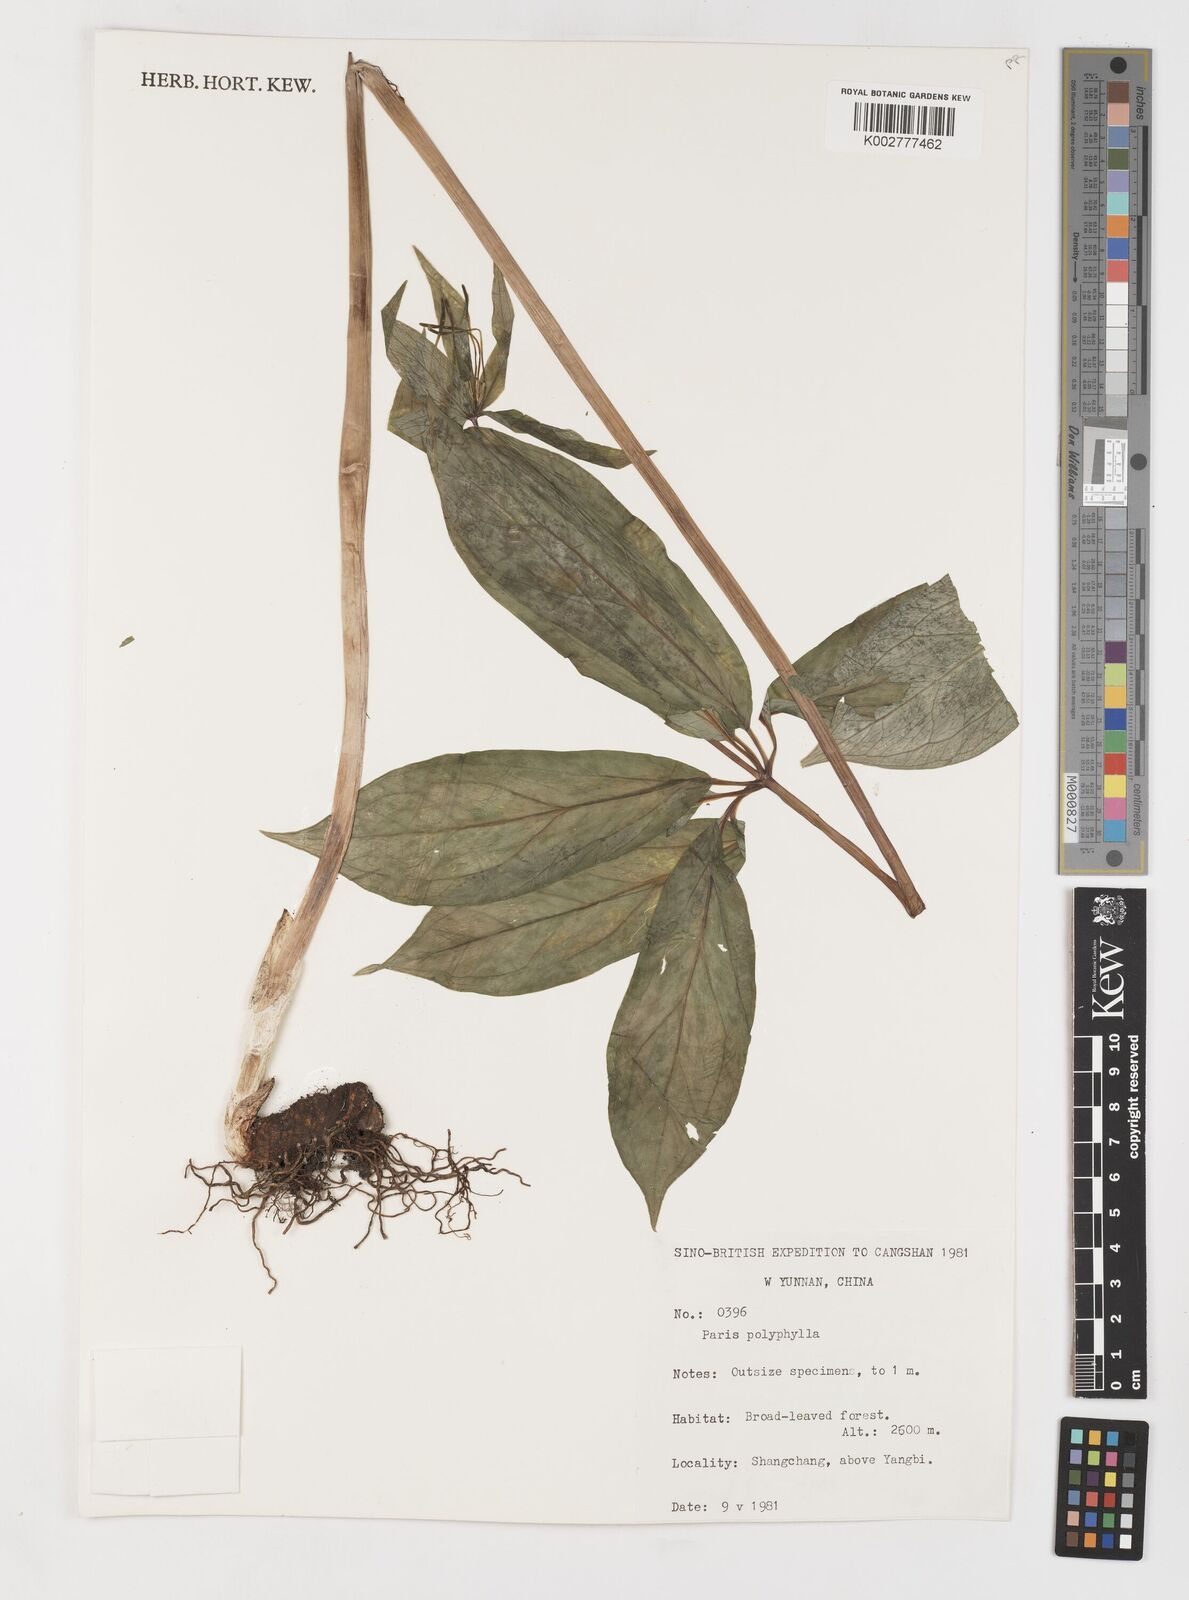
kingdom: Plantae
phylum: Tracheophyta
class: Liliopsida
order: Liliales
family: Melanthiaceae
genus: Paris
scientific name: Paris polyphylla
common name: Love apple
